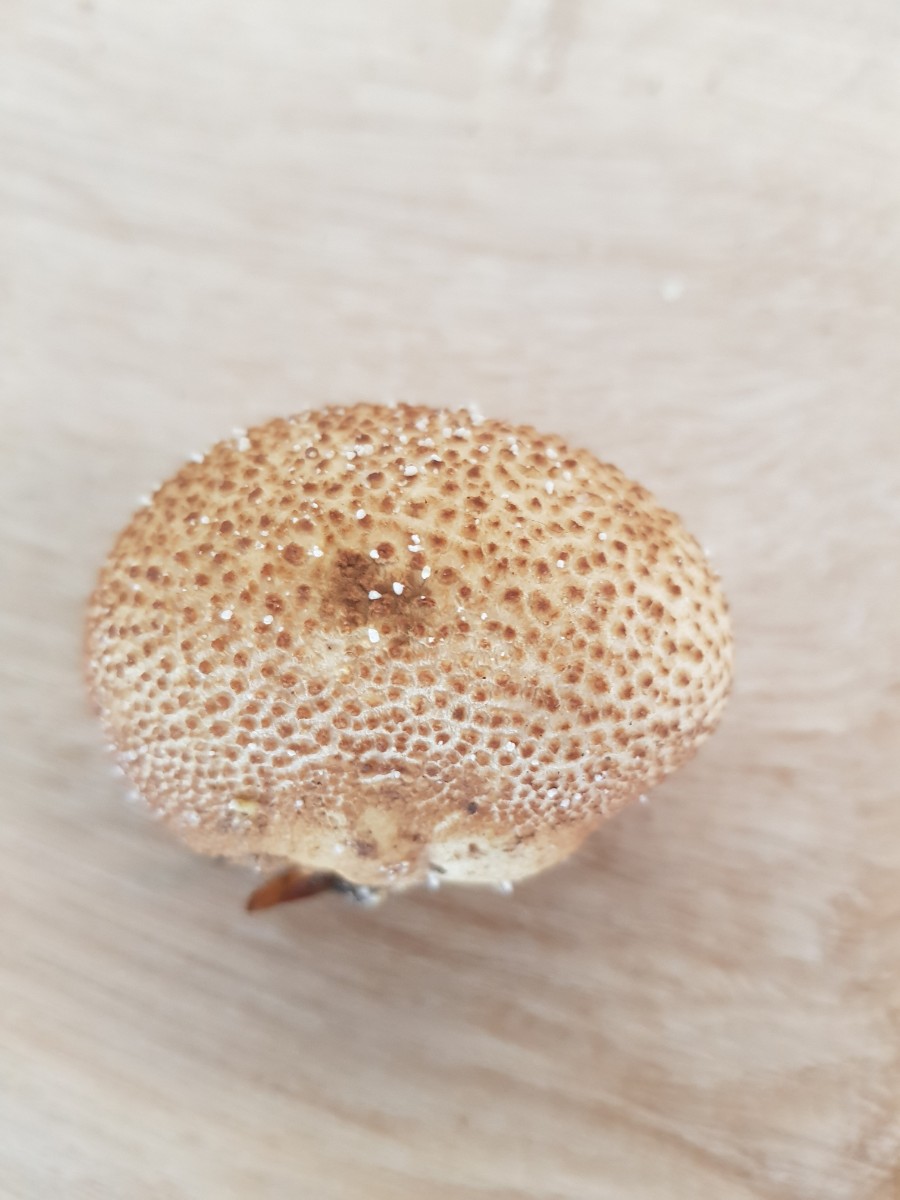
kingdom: Fungi
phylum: Basidiomycota
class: Agaricomycetes
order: Boletales
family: Sclerodermataceae
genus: Scleroderma
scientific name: Scleroderma citrinum
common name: almindelig bruskbold
